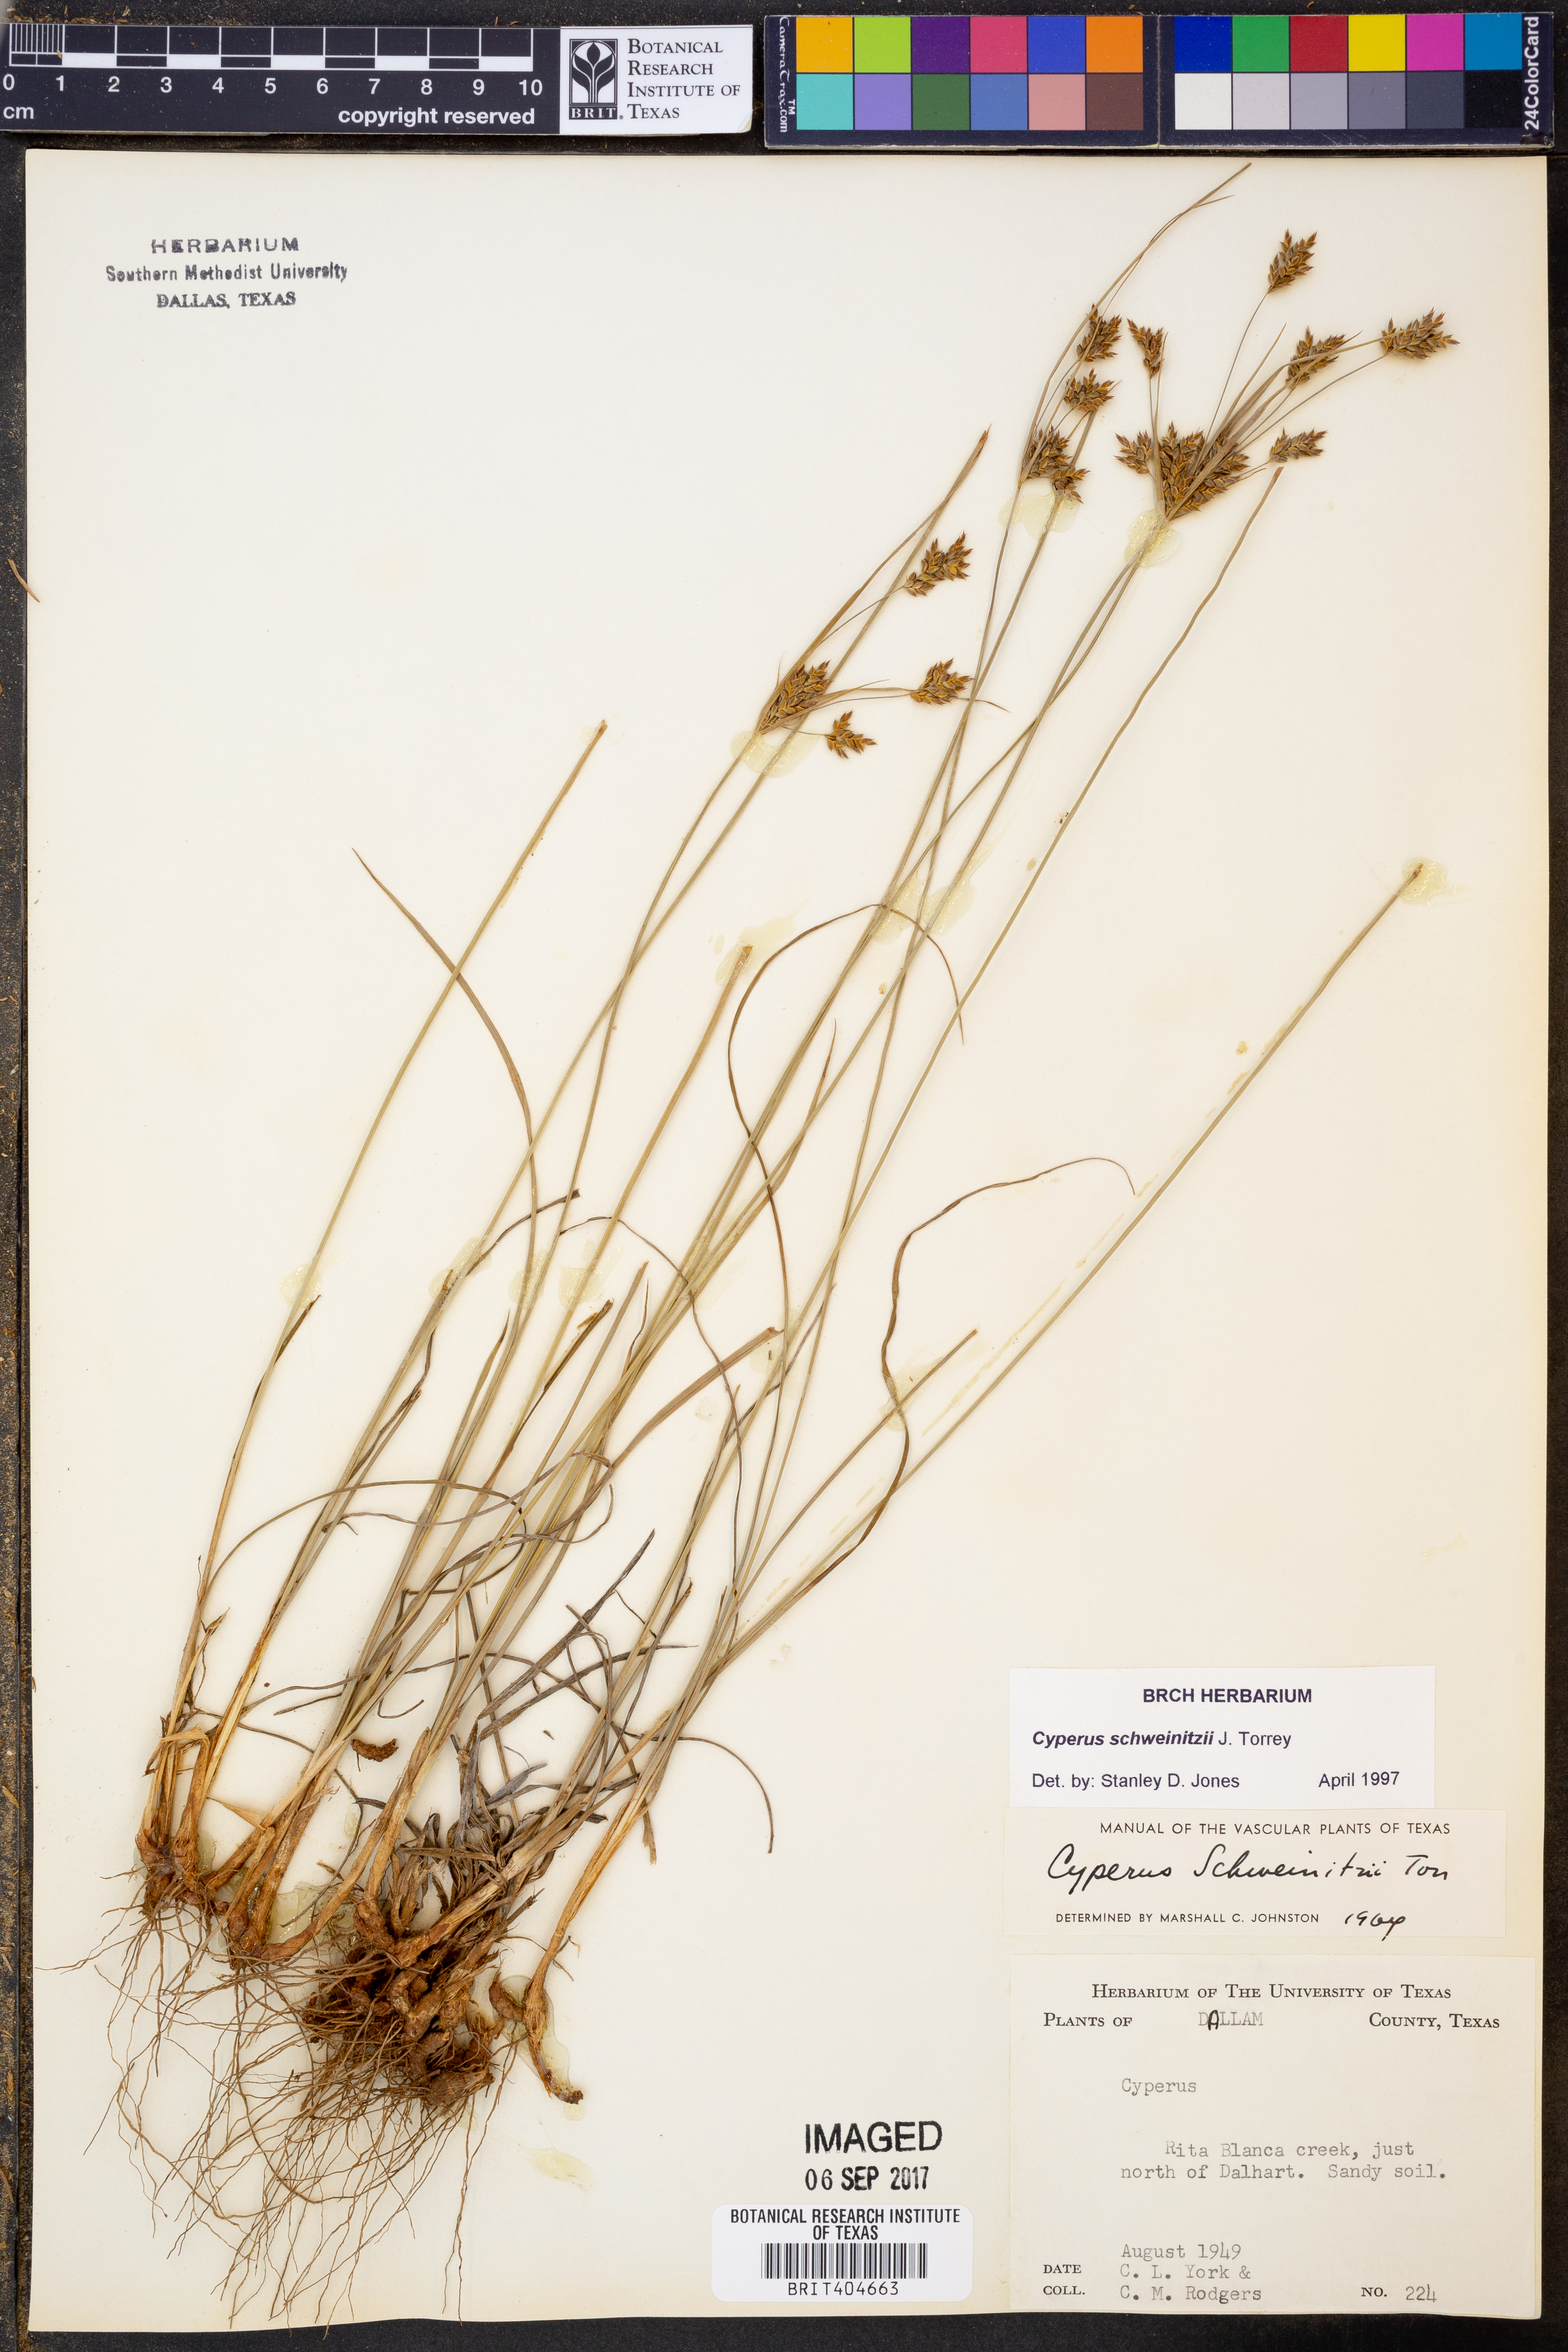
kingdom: Plantae
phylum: Tracheophyta
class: Liliopsida
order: Poales
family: Cyperaceae
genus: Cyperus
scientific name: Cyperus schweinitzii
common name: Schweinitz's cyperus
